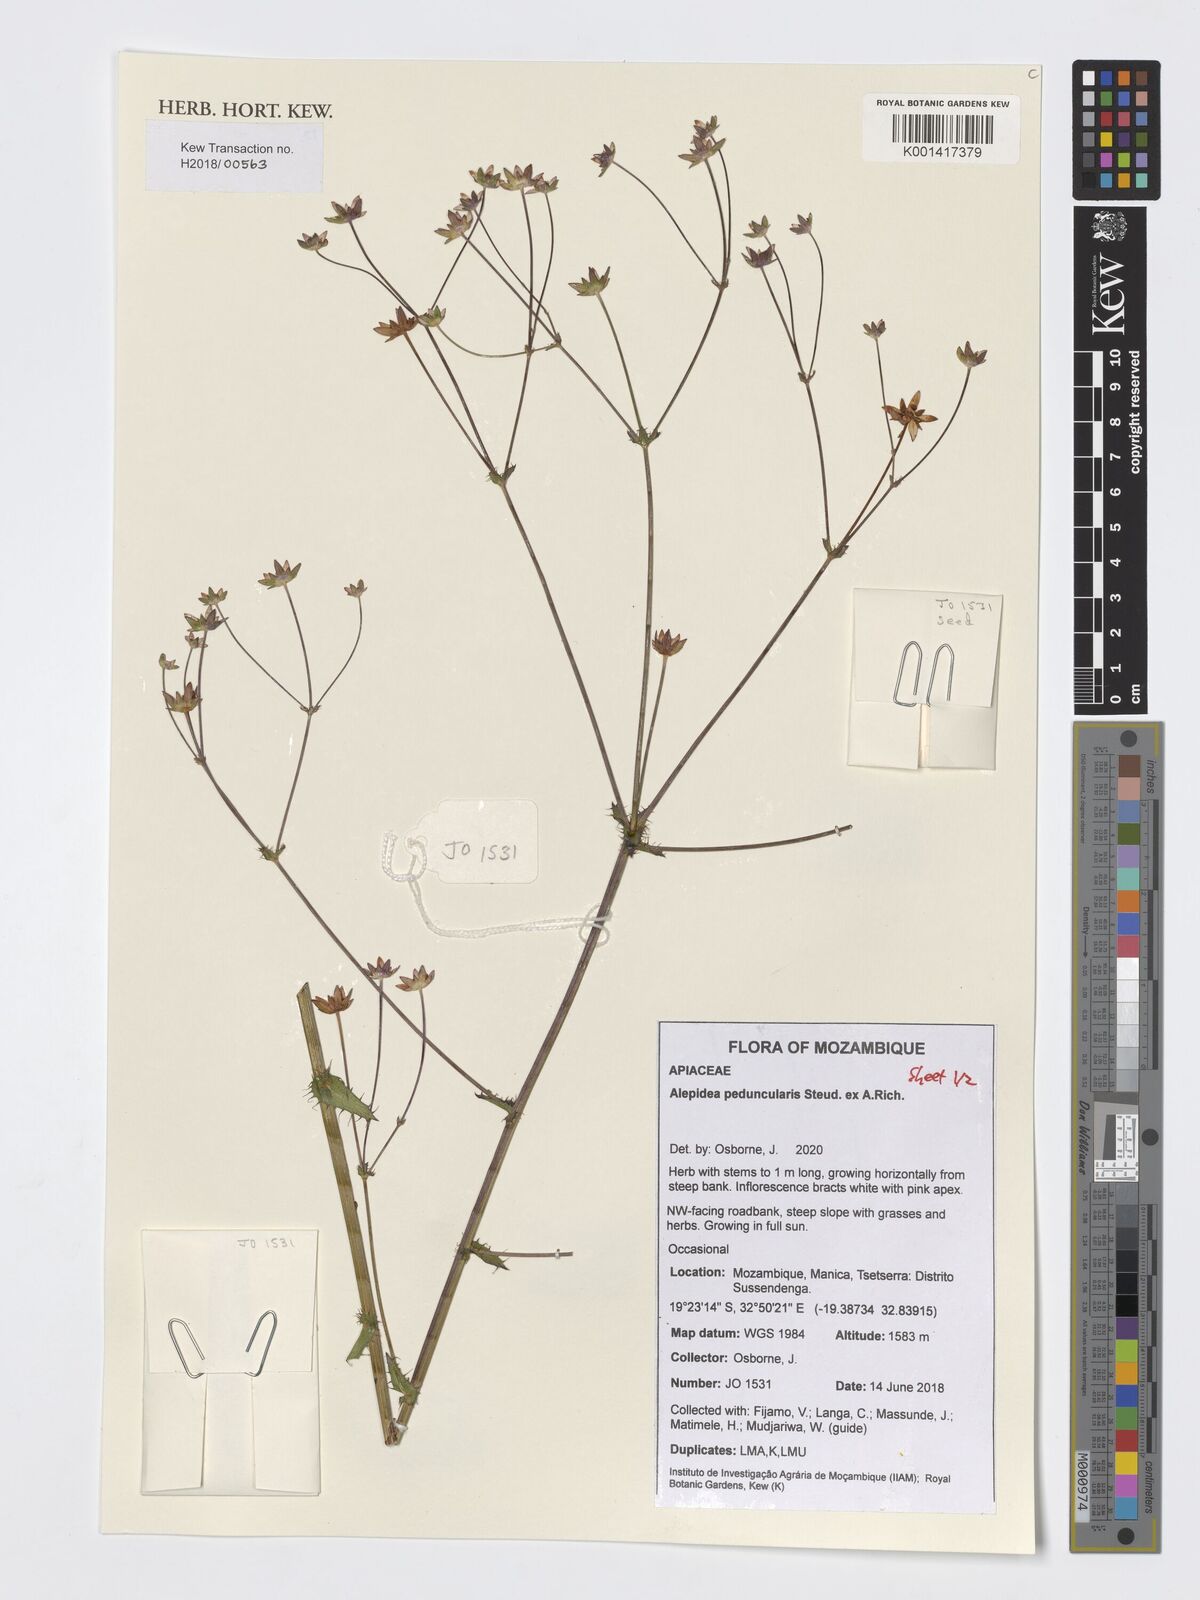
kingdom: Plantae
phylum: Tracheophyta
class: Magnoliopsida
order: Apiales
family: Apiaceae
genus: Alepidea
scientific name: Alepidea peduncularis
